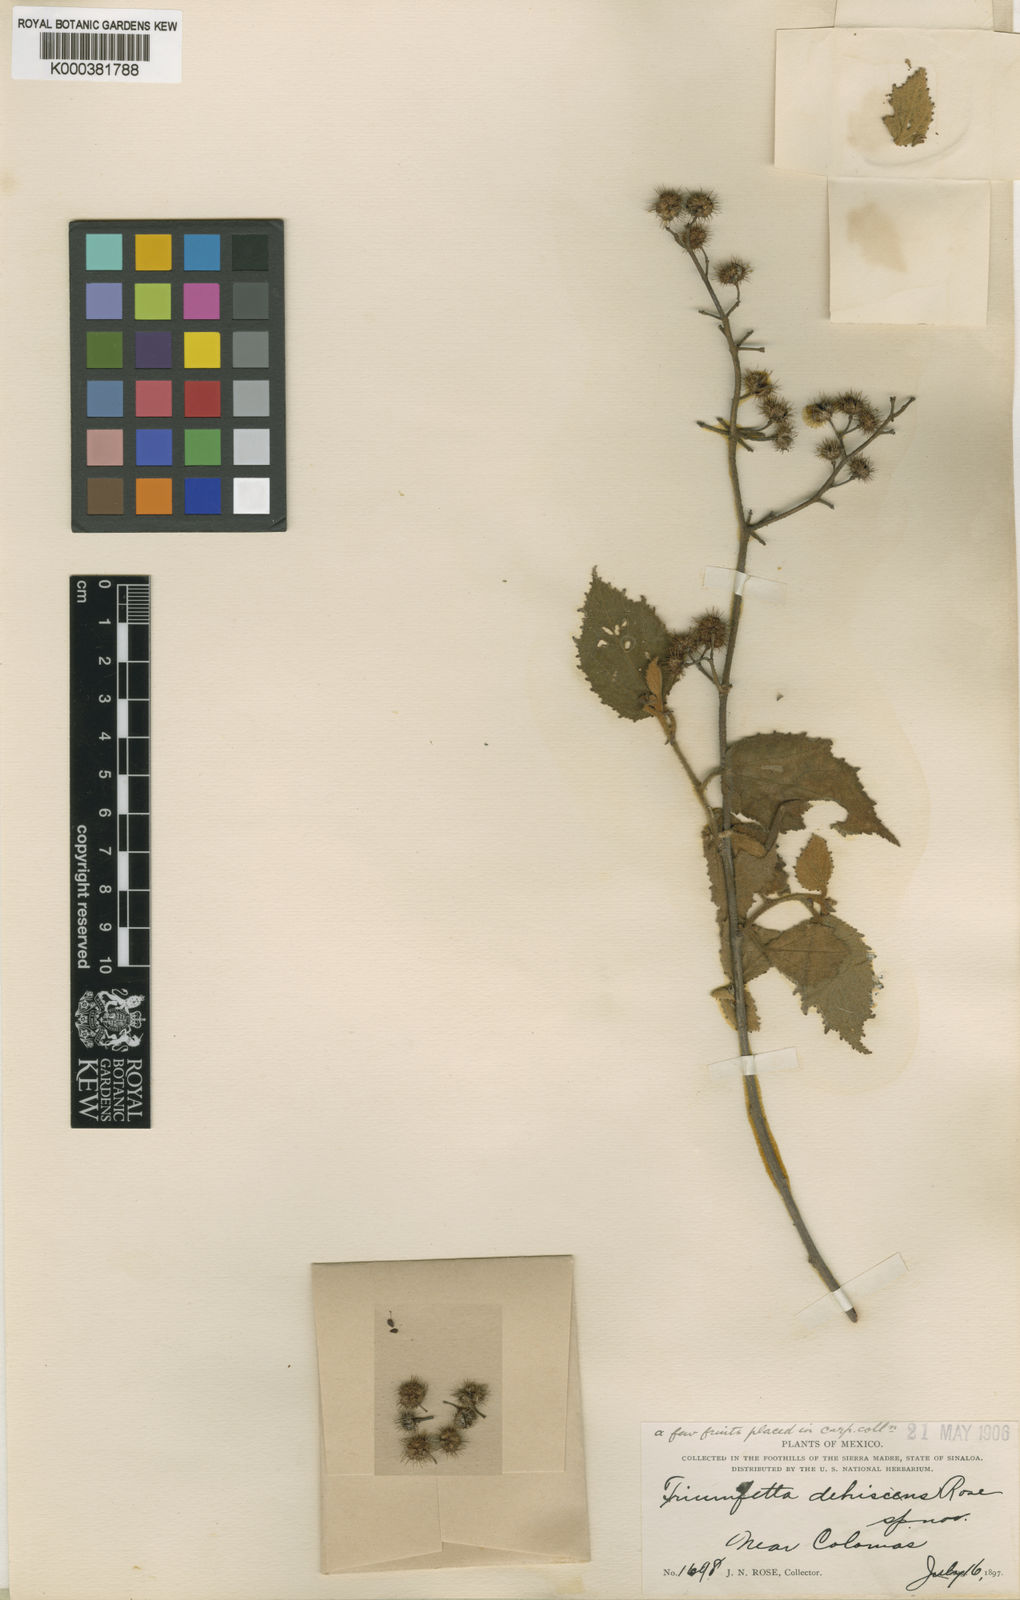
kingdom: Plantae
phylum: Tracheophyta
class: Magnoliopsida
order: Malvales
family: Malvaceae
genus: Triumfetta
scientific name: Triumfetta discolor
